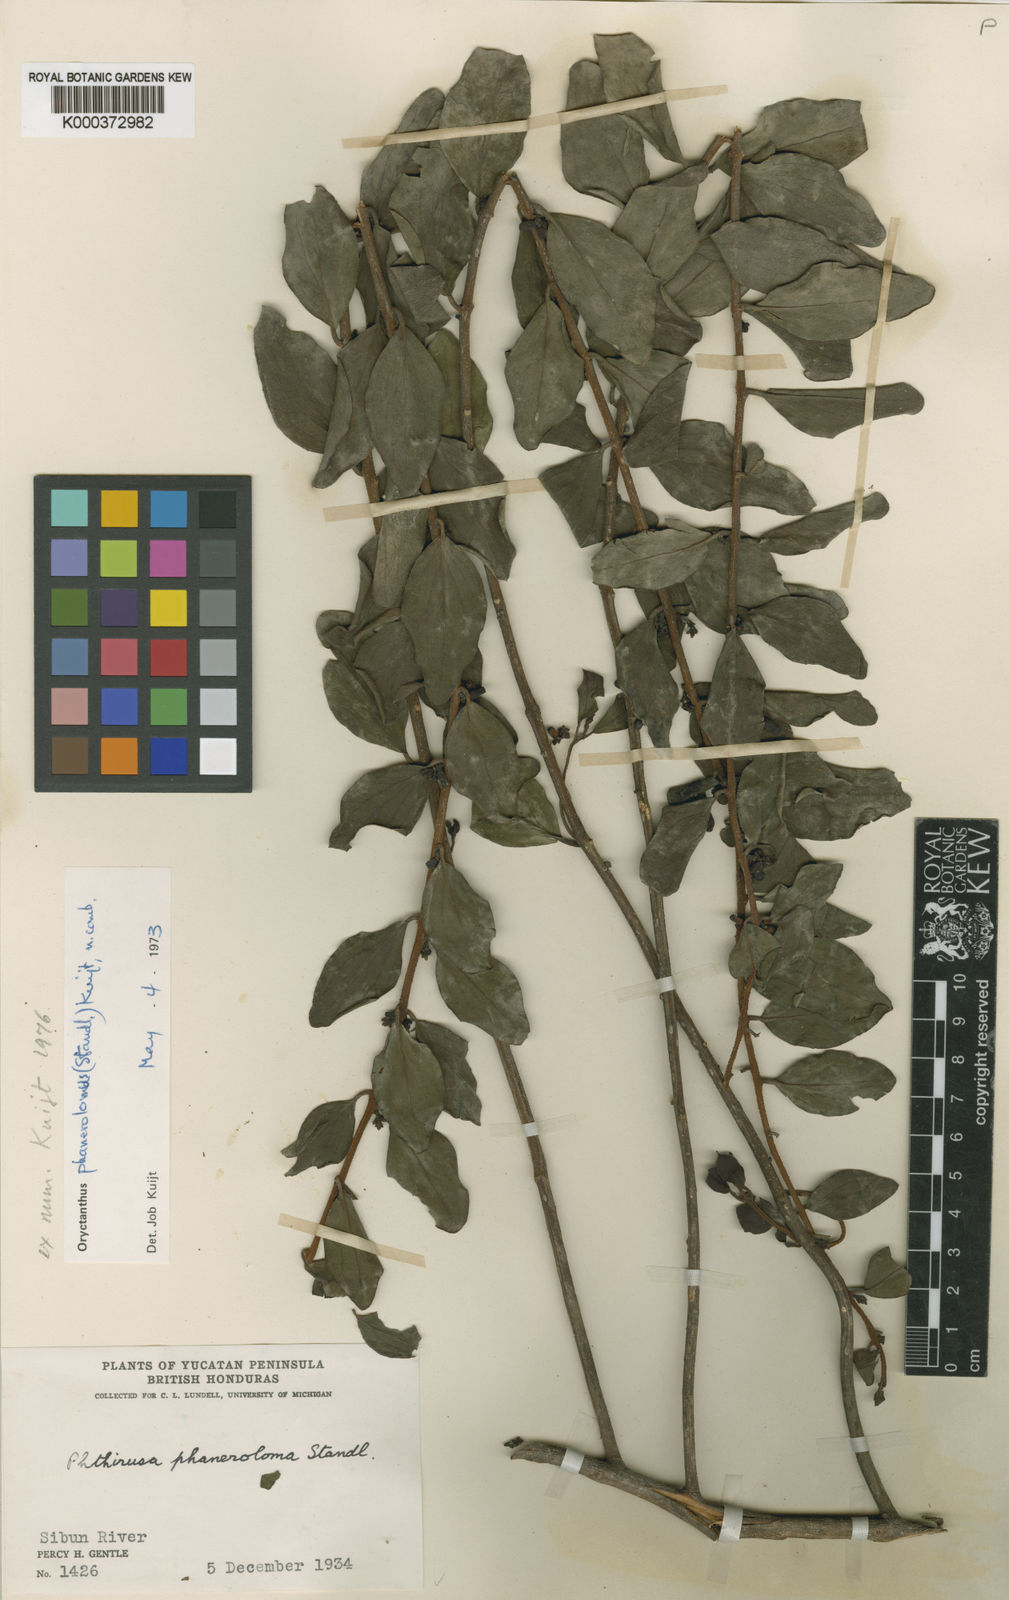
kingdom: Plantae
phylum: Tracheophyta
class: Magnoliopsida
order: Santalales
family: Loranthaceae
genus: Oryctanthus
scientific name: Oryctanthus spicatus
